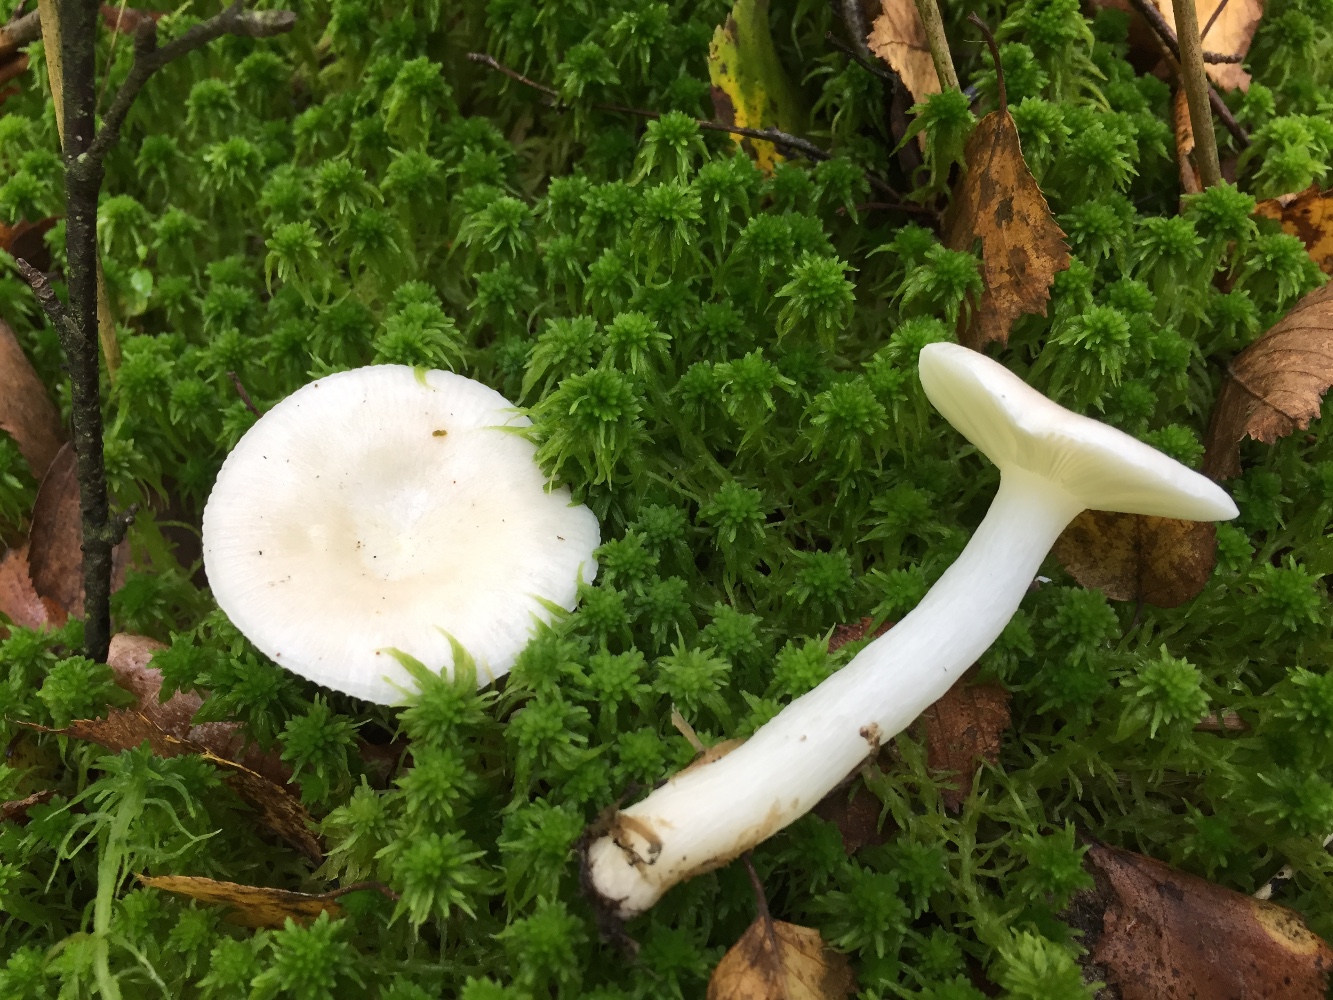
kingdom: Fungi
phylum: Basidiomycota
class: Agaricomycetes
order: Russulales
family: Russulaceae
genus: Russula
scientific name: Russula betularum
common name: bleg gift-skørhat
